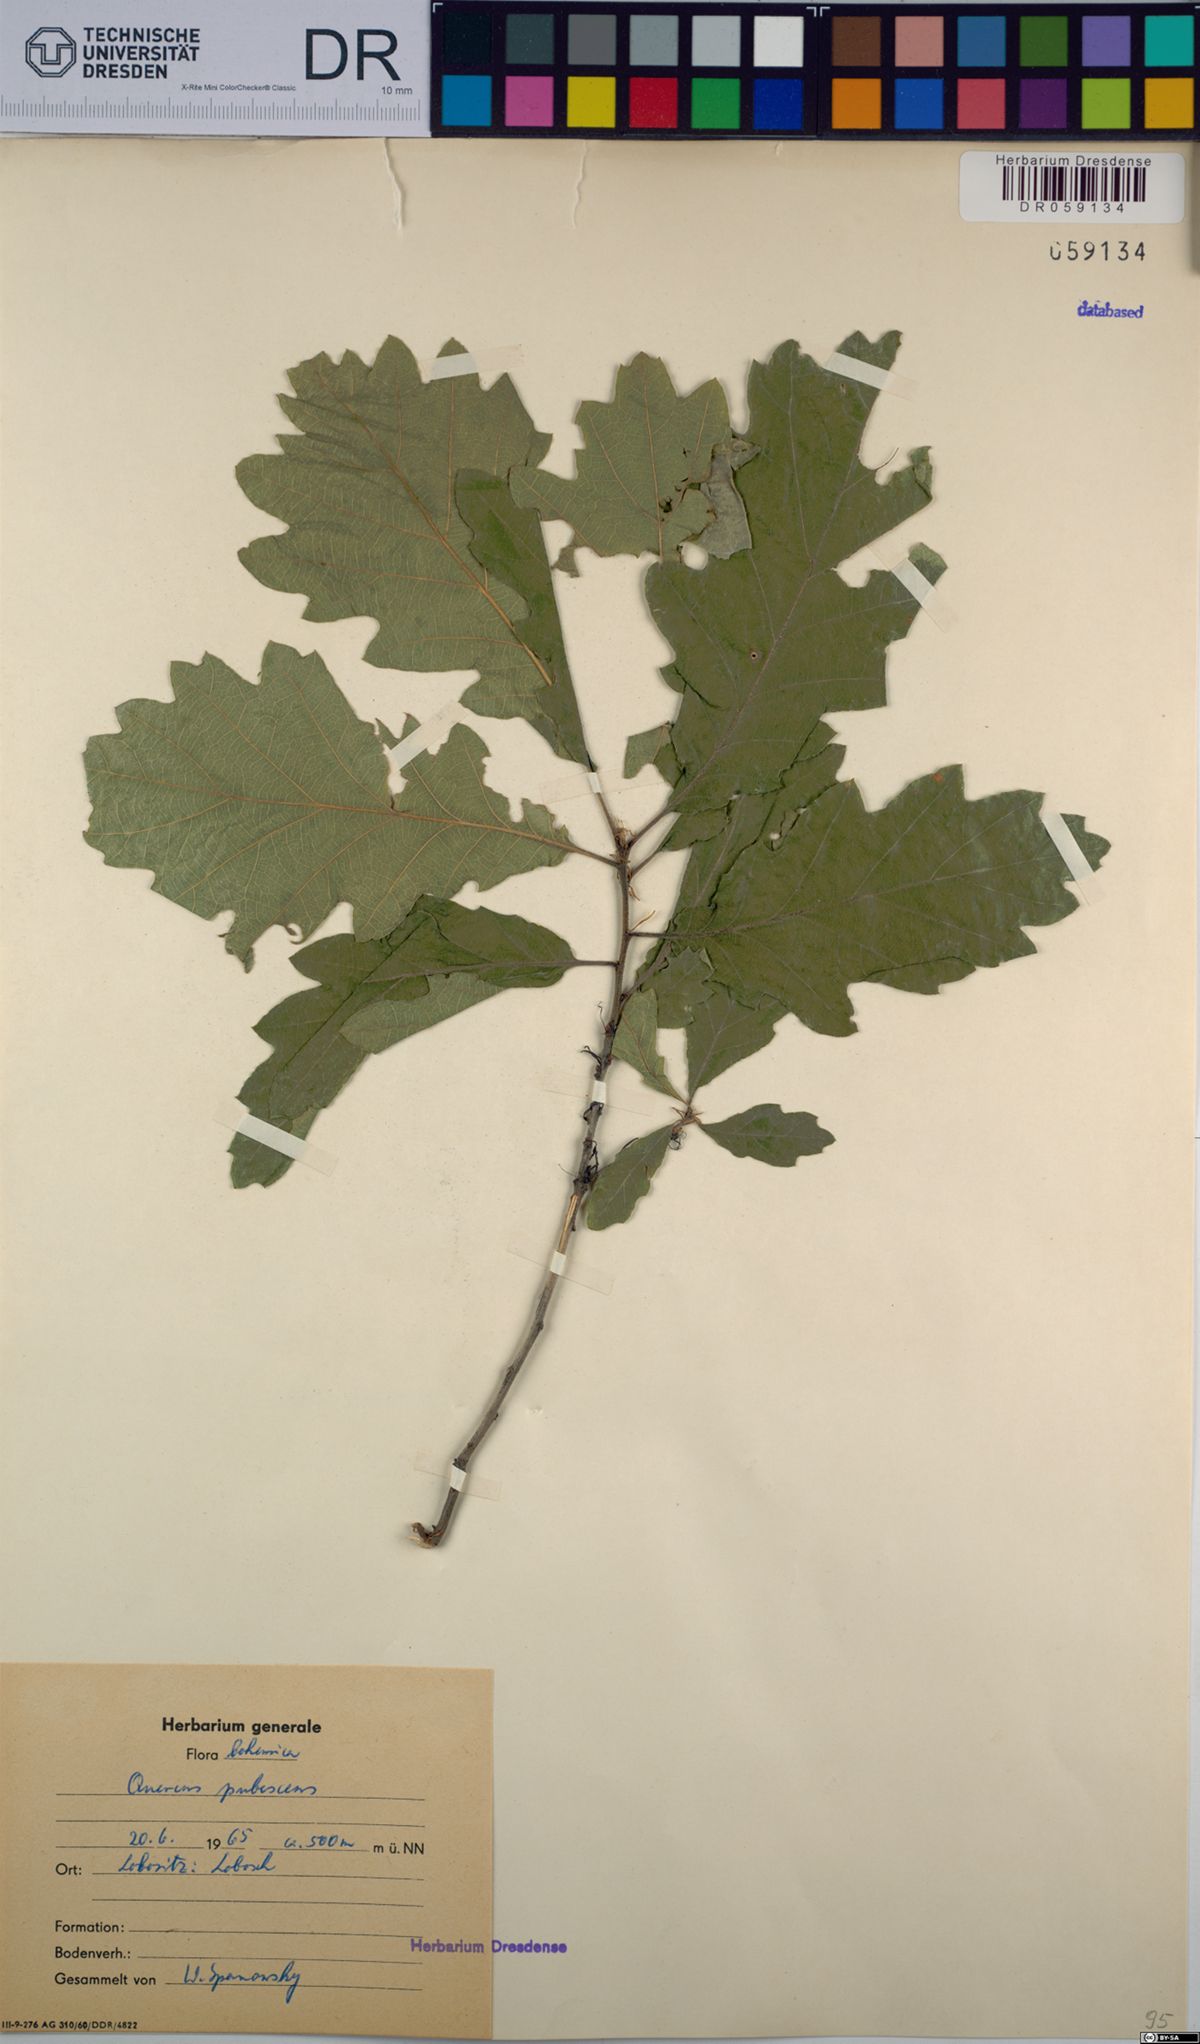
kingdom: Plantae
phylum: Tracheophyta
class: Magnoliopsida
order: Fagales
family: Fagaceae
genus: Quercus
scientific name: Quercus pubescens
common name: Downy oak
